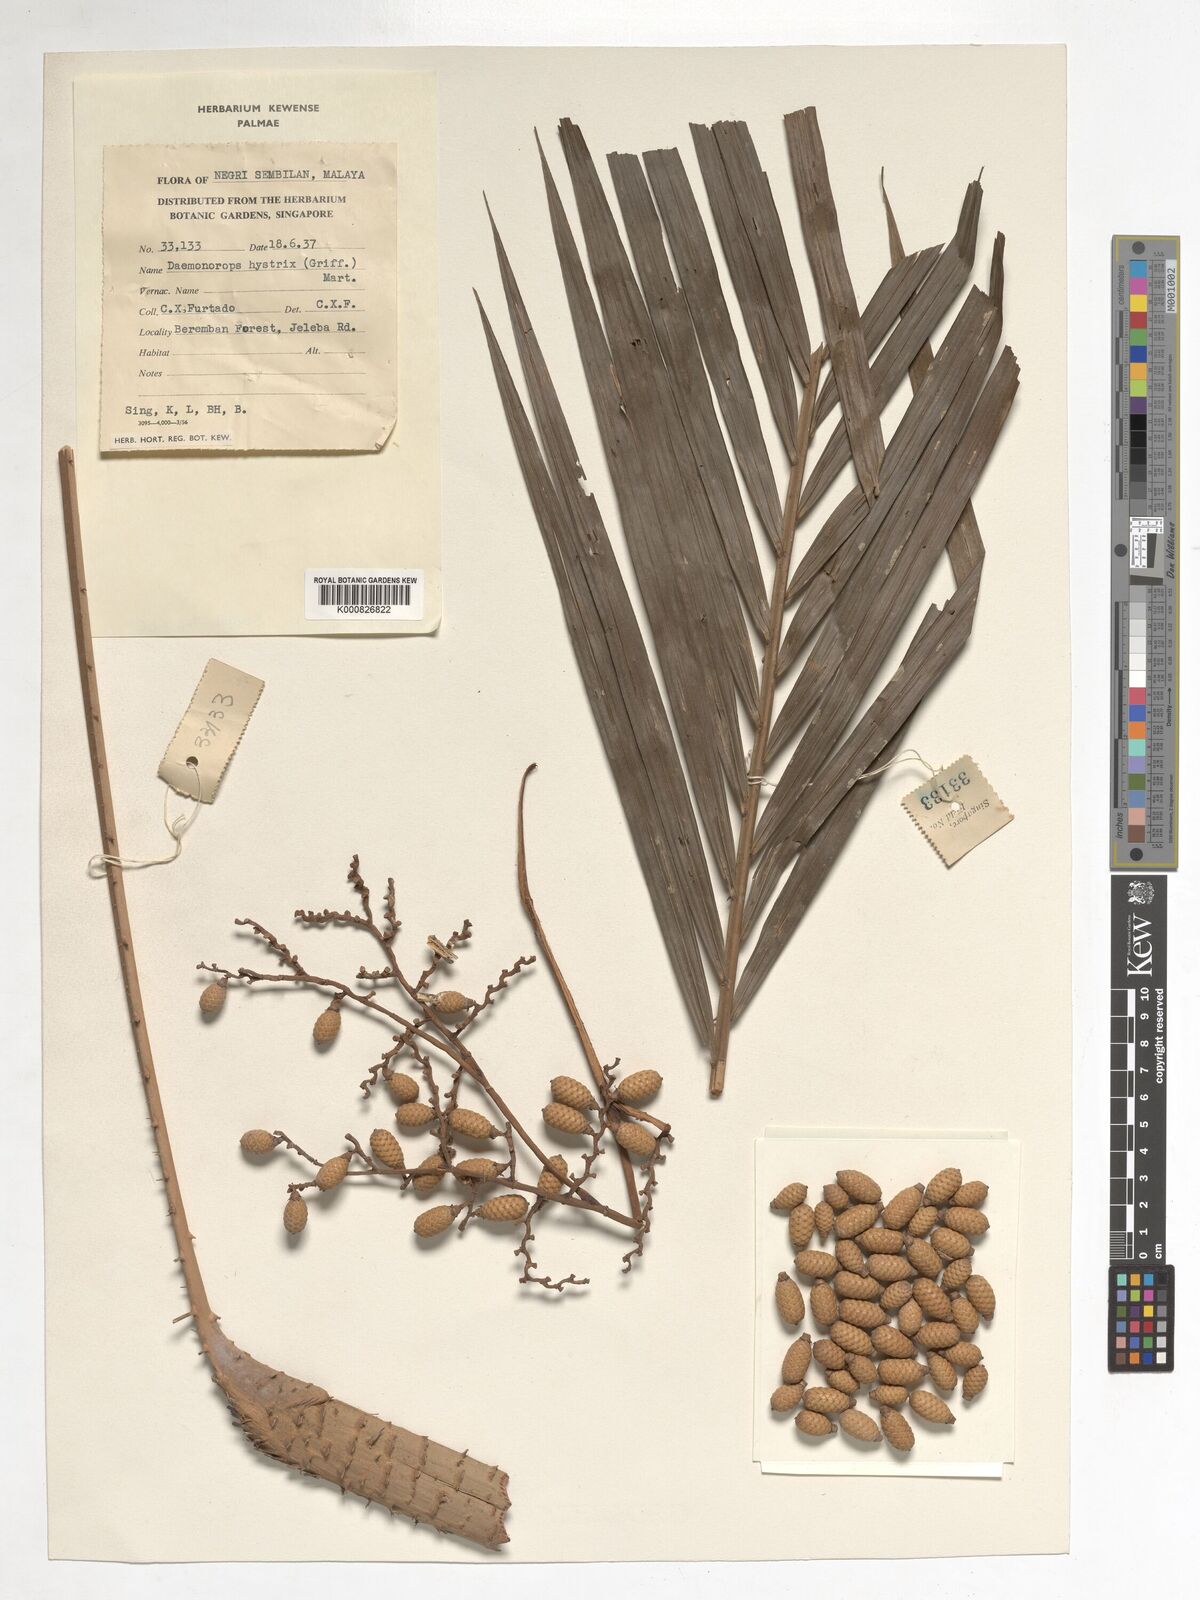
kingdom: Plantae
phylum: Tracheophyta
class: Liliopsida
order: Arecales
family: Arecaceae
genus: Calamus
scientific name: Calamus hirsutus
